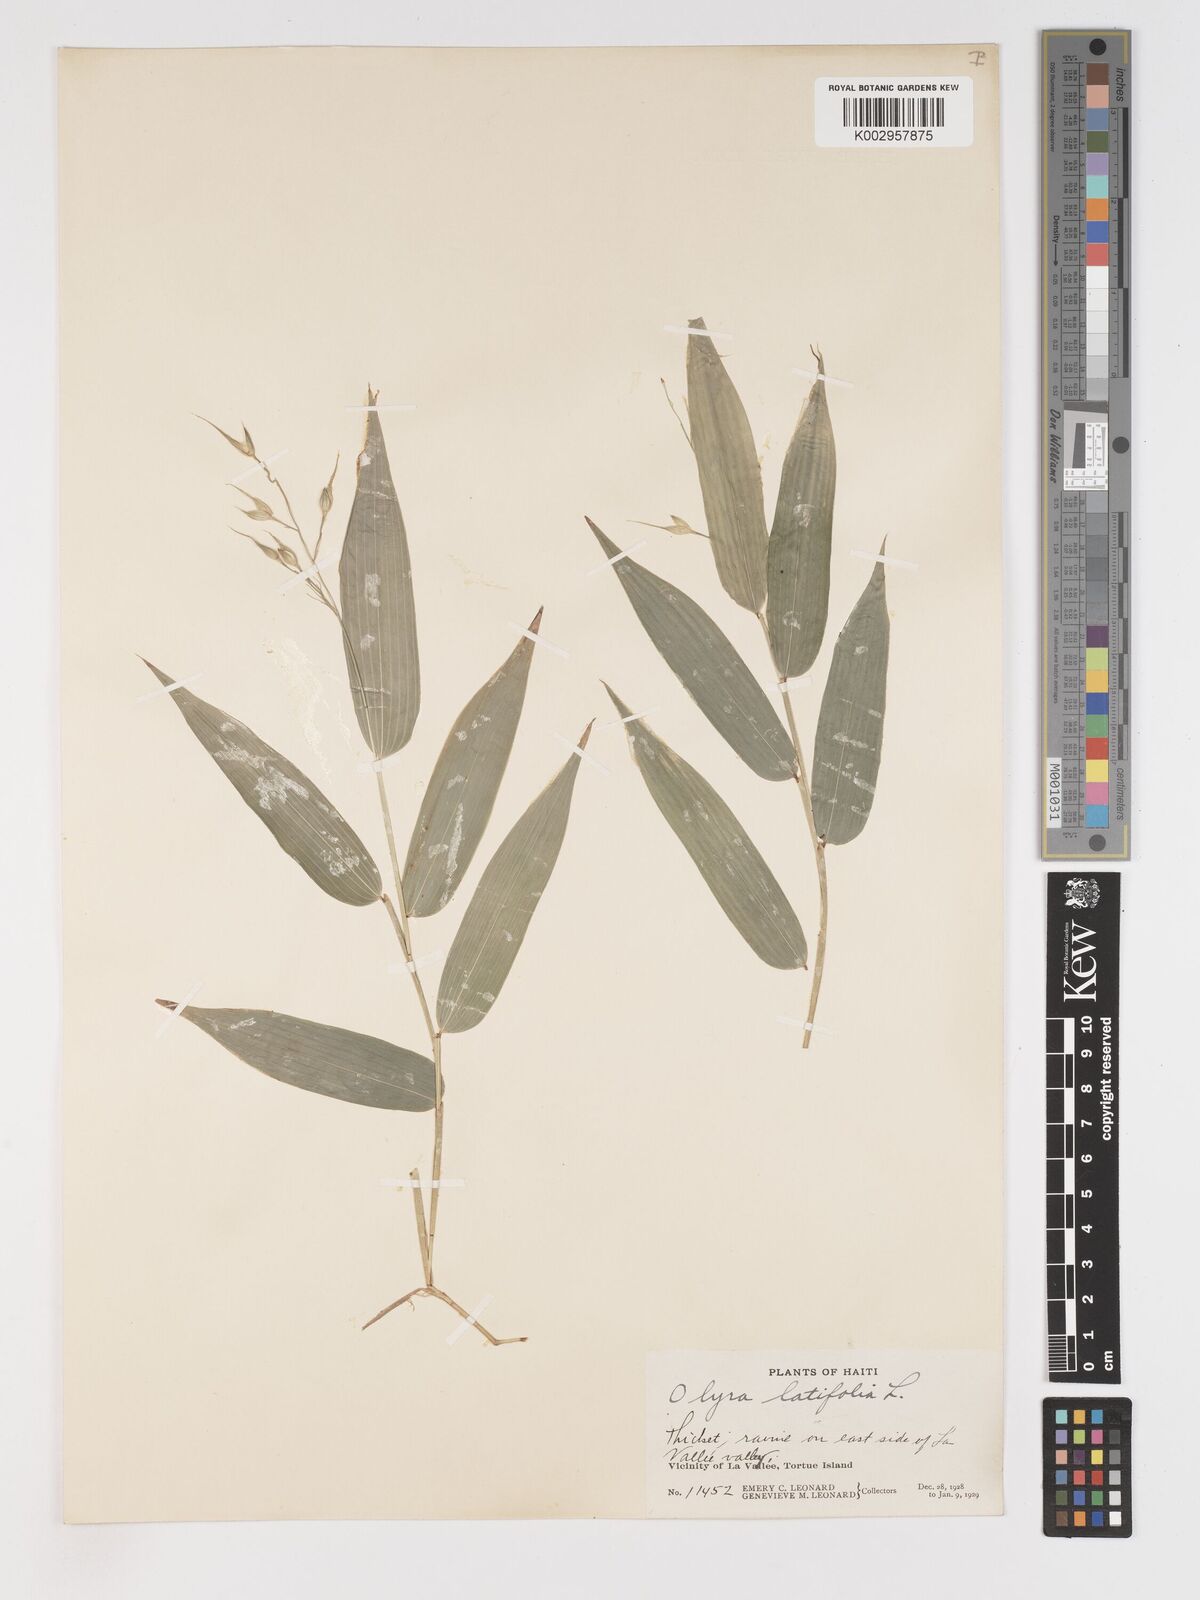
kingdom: Plantae
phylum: Tracheophyta
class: Liliopsida
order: Poales
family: Poaceae
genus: Olyra
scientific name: Olyra latifolia
